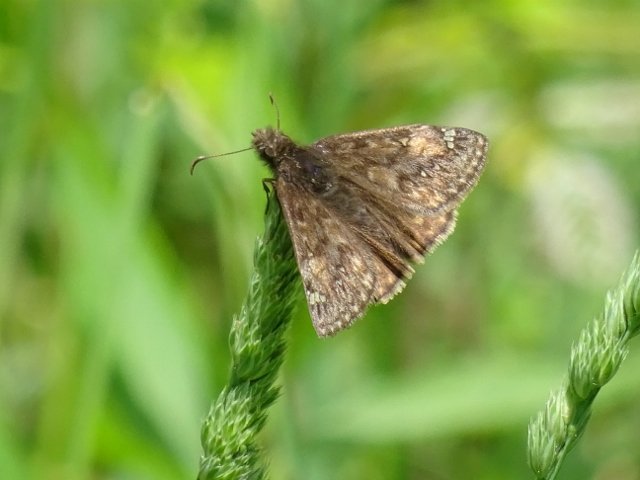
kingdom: Animalia
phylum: Arthropoda
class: Insecta
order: Lepidoptera
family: Hesperiidae
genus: Gesta
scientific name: Gesta
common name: Juvenal's Duskywing
